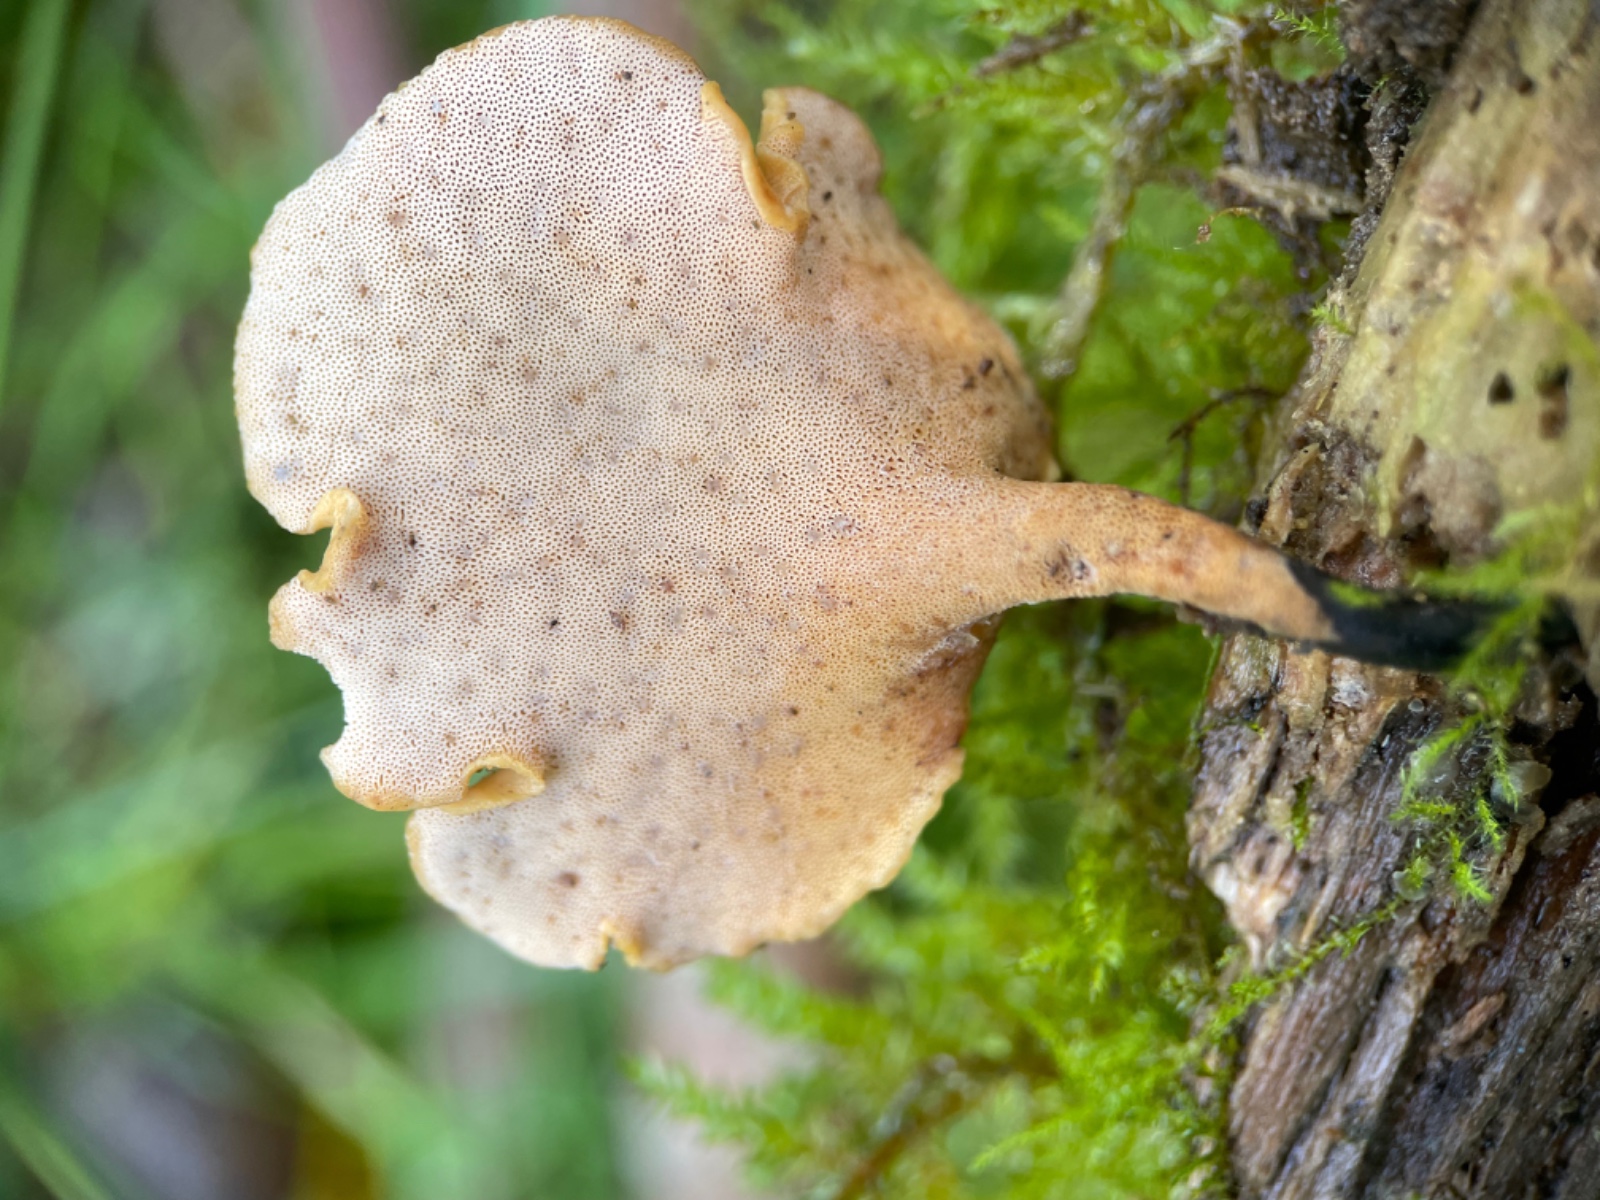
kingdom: Fungi
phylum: Basidiomycota
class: Agaricomycetes
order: Polyporales
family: Polyporaceae
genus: Cerioporus
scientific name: Cerioporus varius
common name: foranderlig stilkporesvamp
